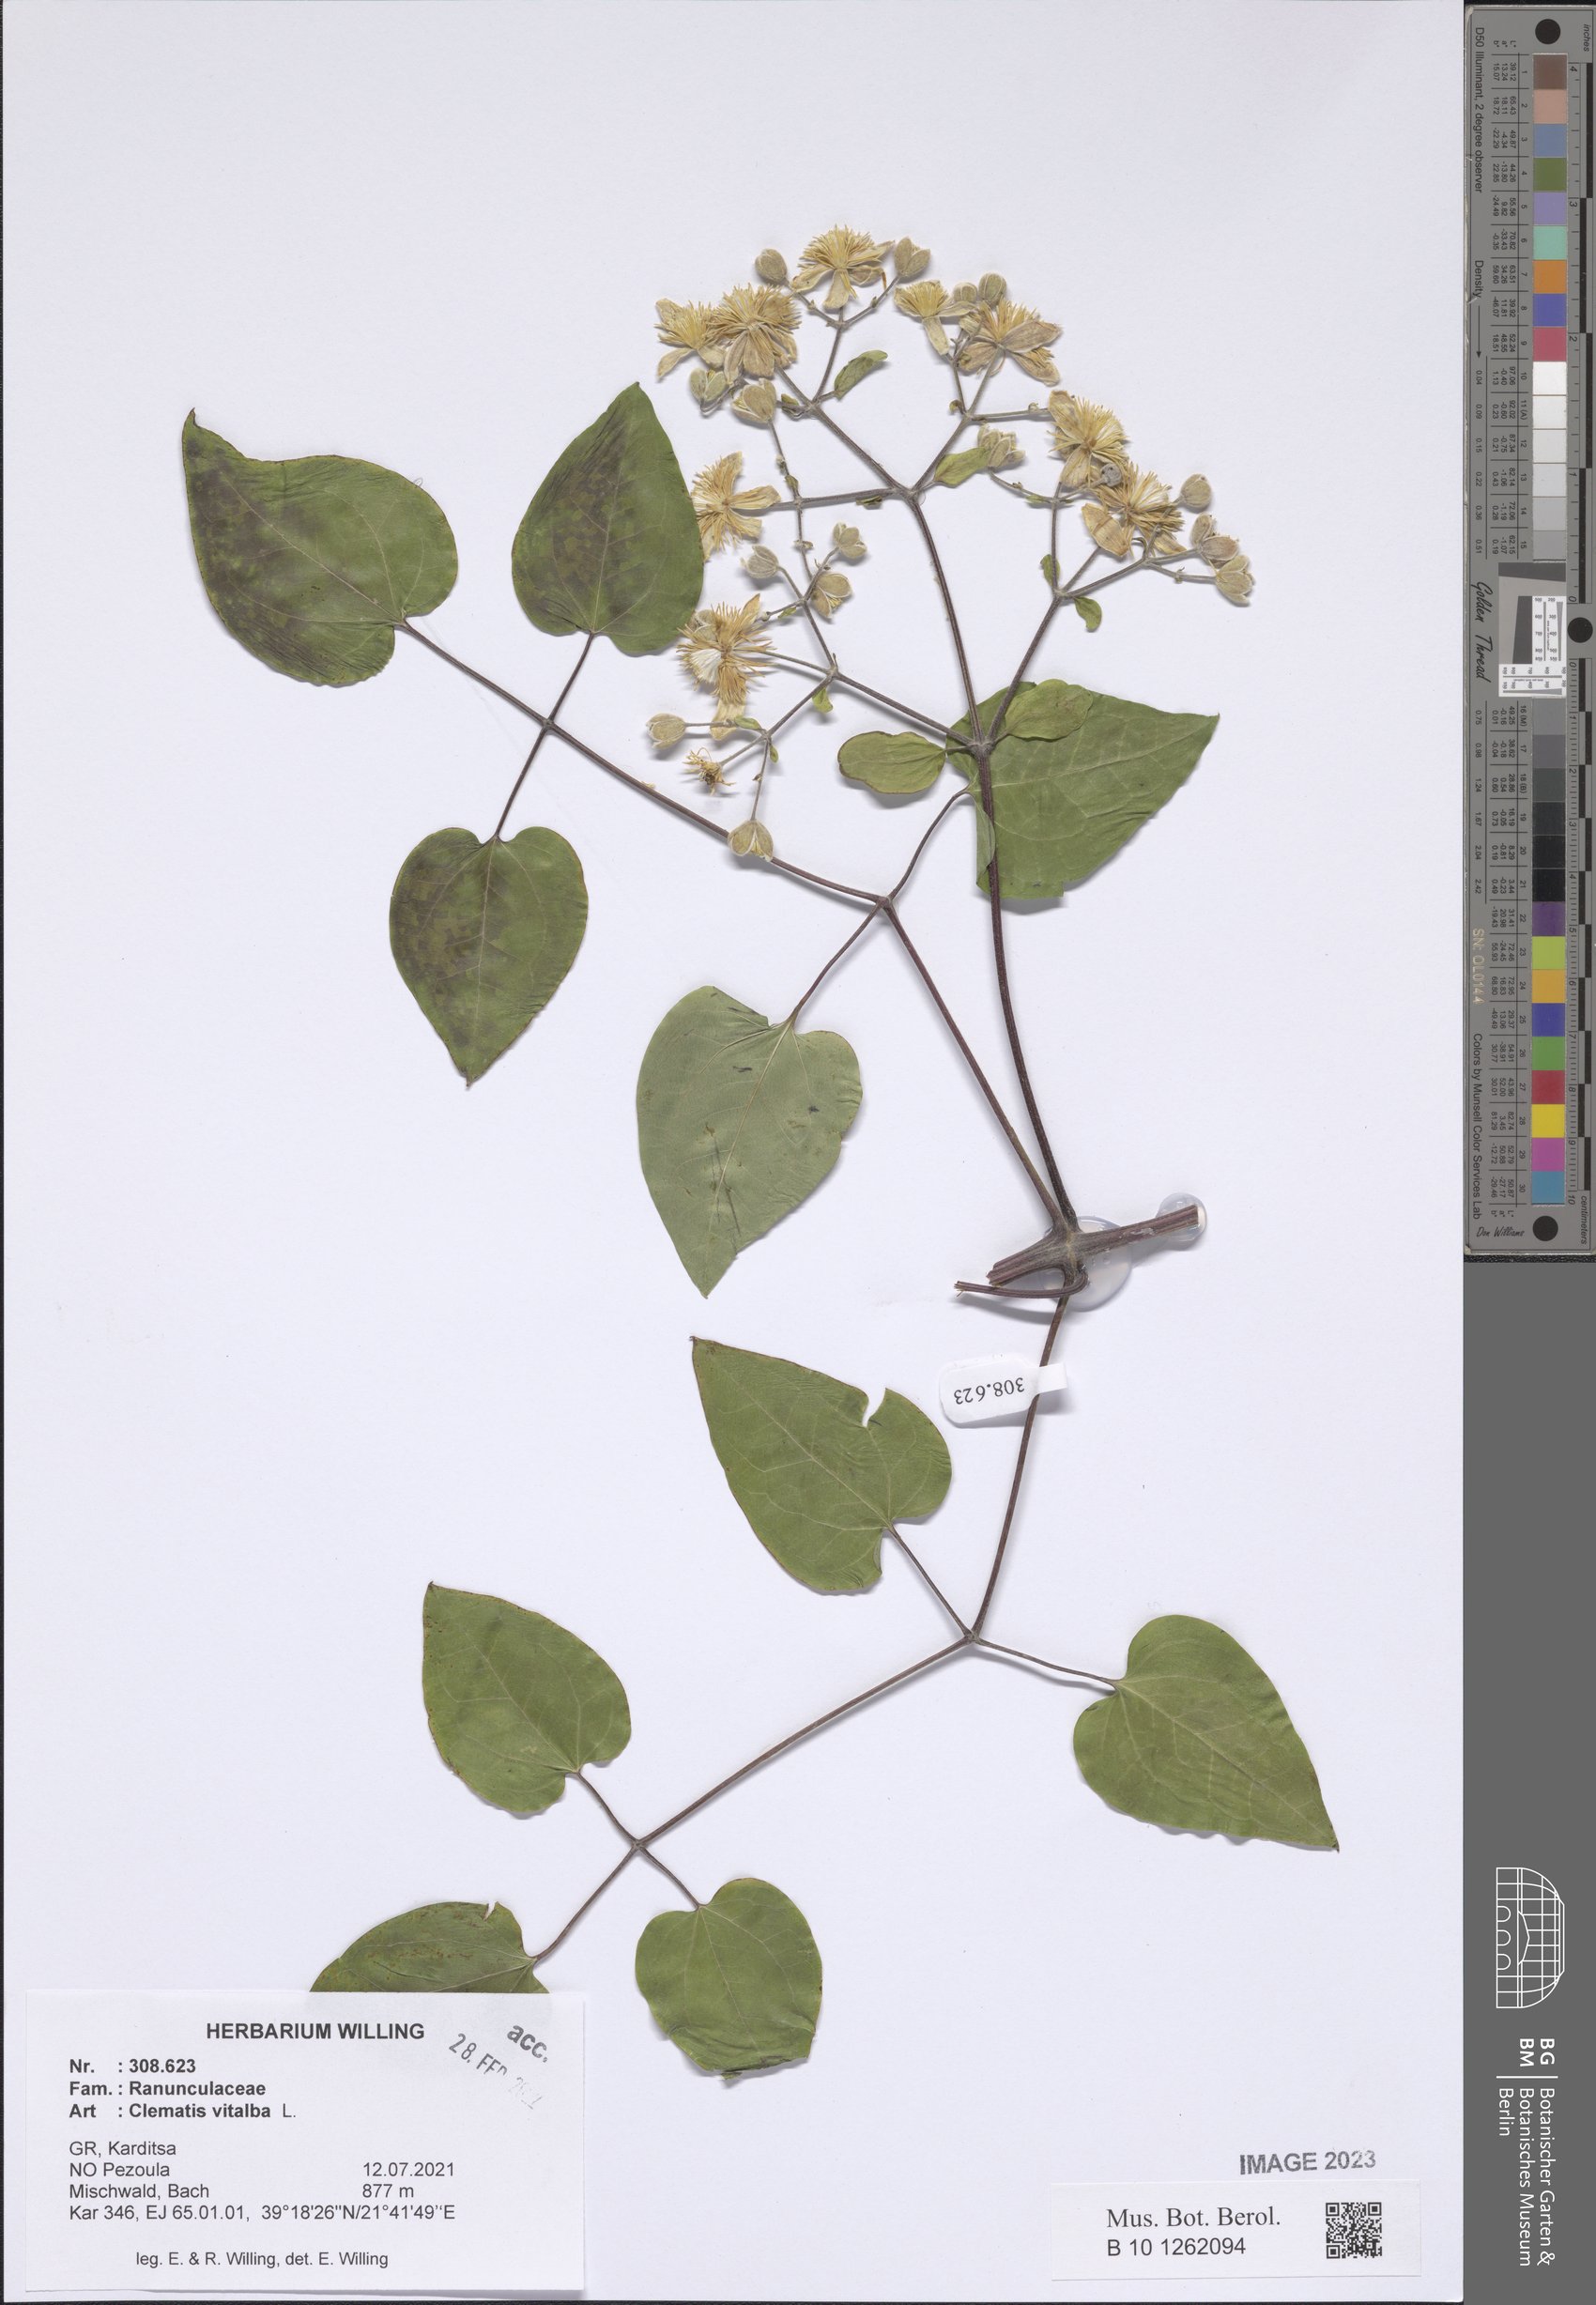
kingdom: Plantae
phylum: Tracheophyta
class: Magnoliopsida
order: Ranunculales
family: Ranunculaceae
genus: Clematis
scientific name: Clematis vitalba
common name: Evergreen clematis
